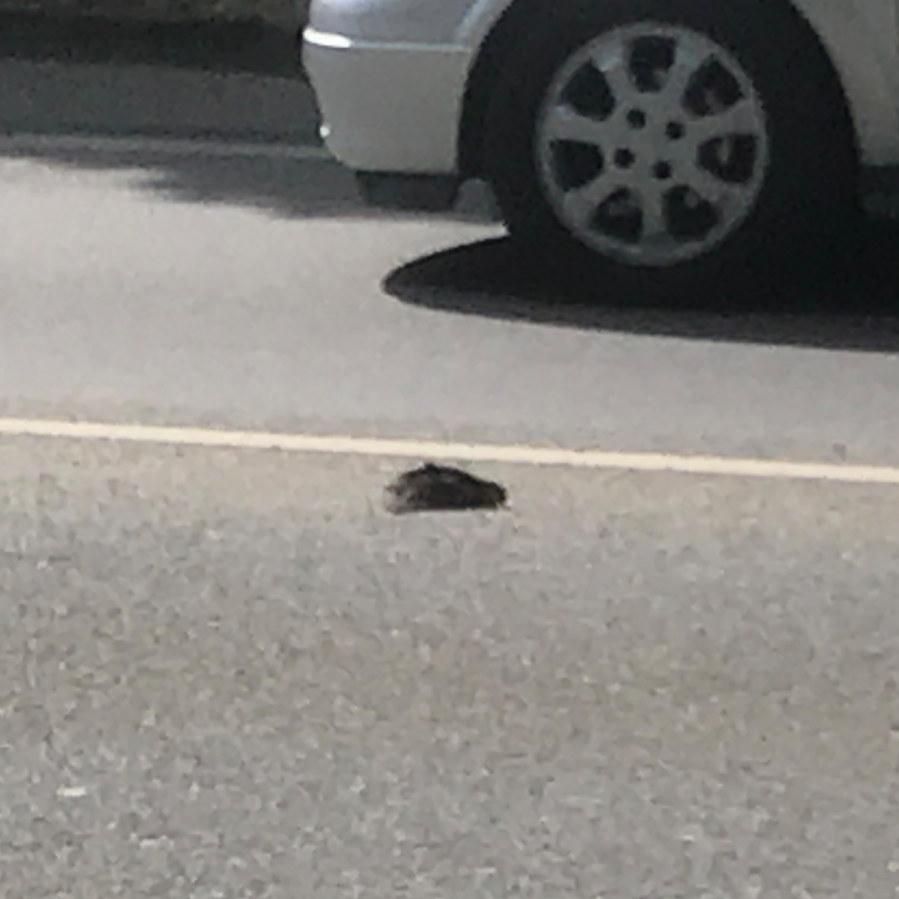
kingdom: Animalia
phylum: Chordata
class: Aves
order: Passeriformes
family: Turdidae
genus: Turdus
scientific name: Turdus merula
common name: Common blackbird
